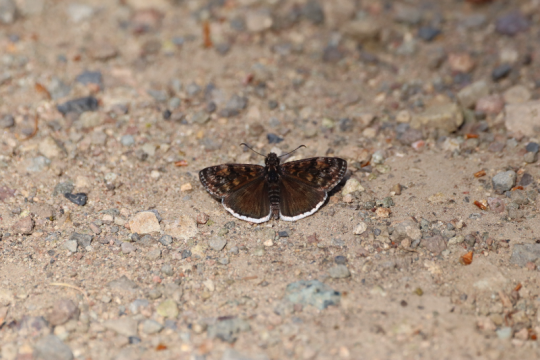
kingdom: Animalia
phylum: Arthropoda
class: Insecta
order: Lepidoptera
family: Hesperiidae
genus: Erynnis
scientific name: Erynnis funeralis
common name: Funereal Duskywing
